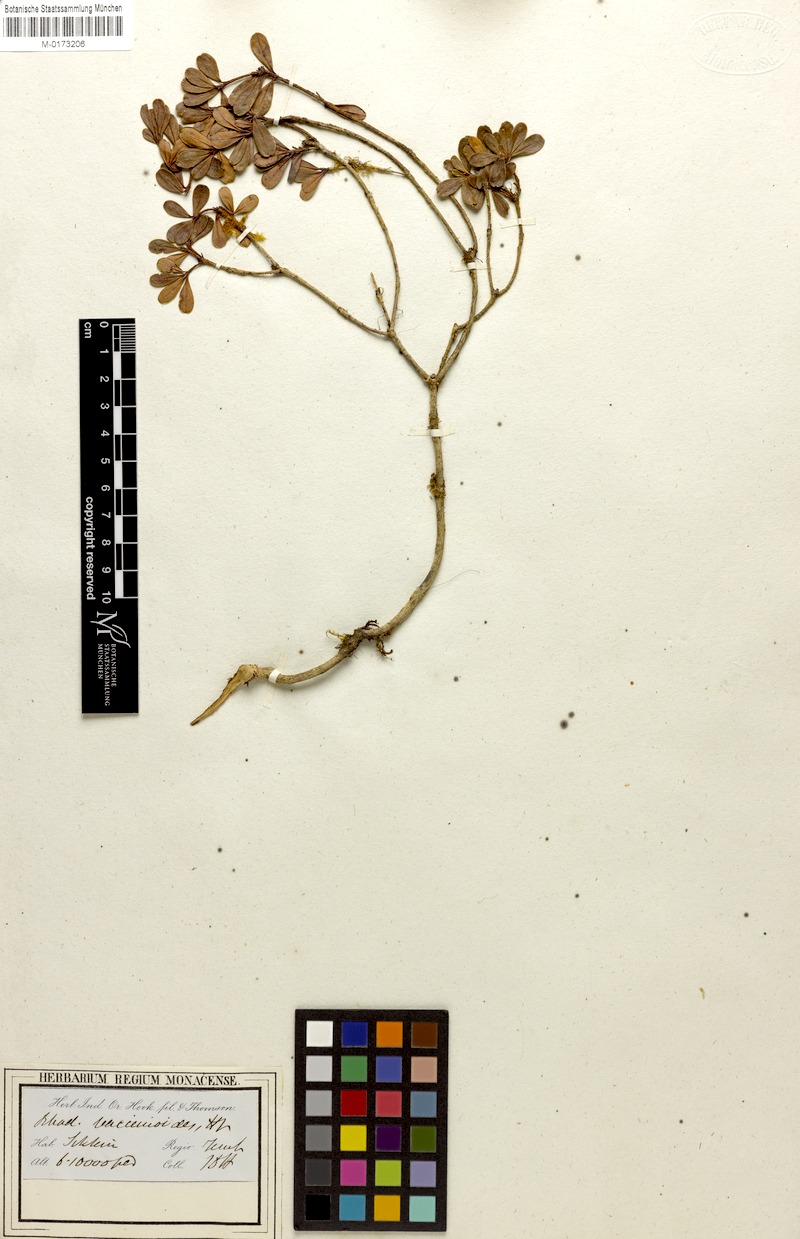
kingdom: Plantae
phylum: Tracheophyta
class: Magnoliopsida
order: Ericales
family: Ericaceae
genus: Rhododendron
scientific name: Rhododendron vaccinioides
